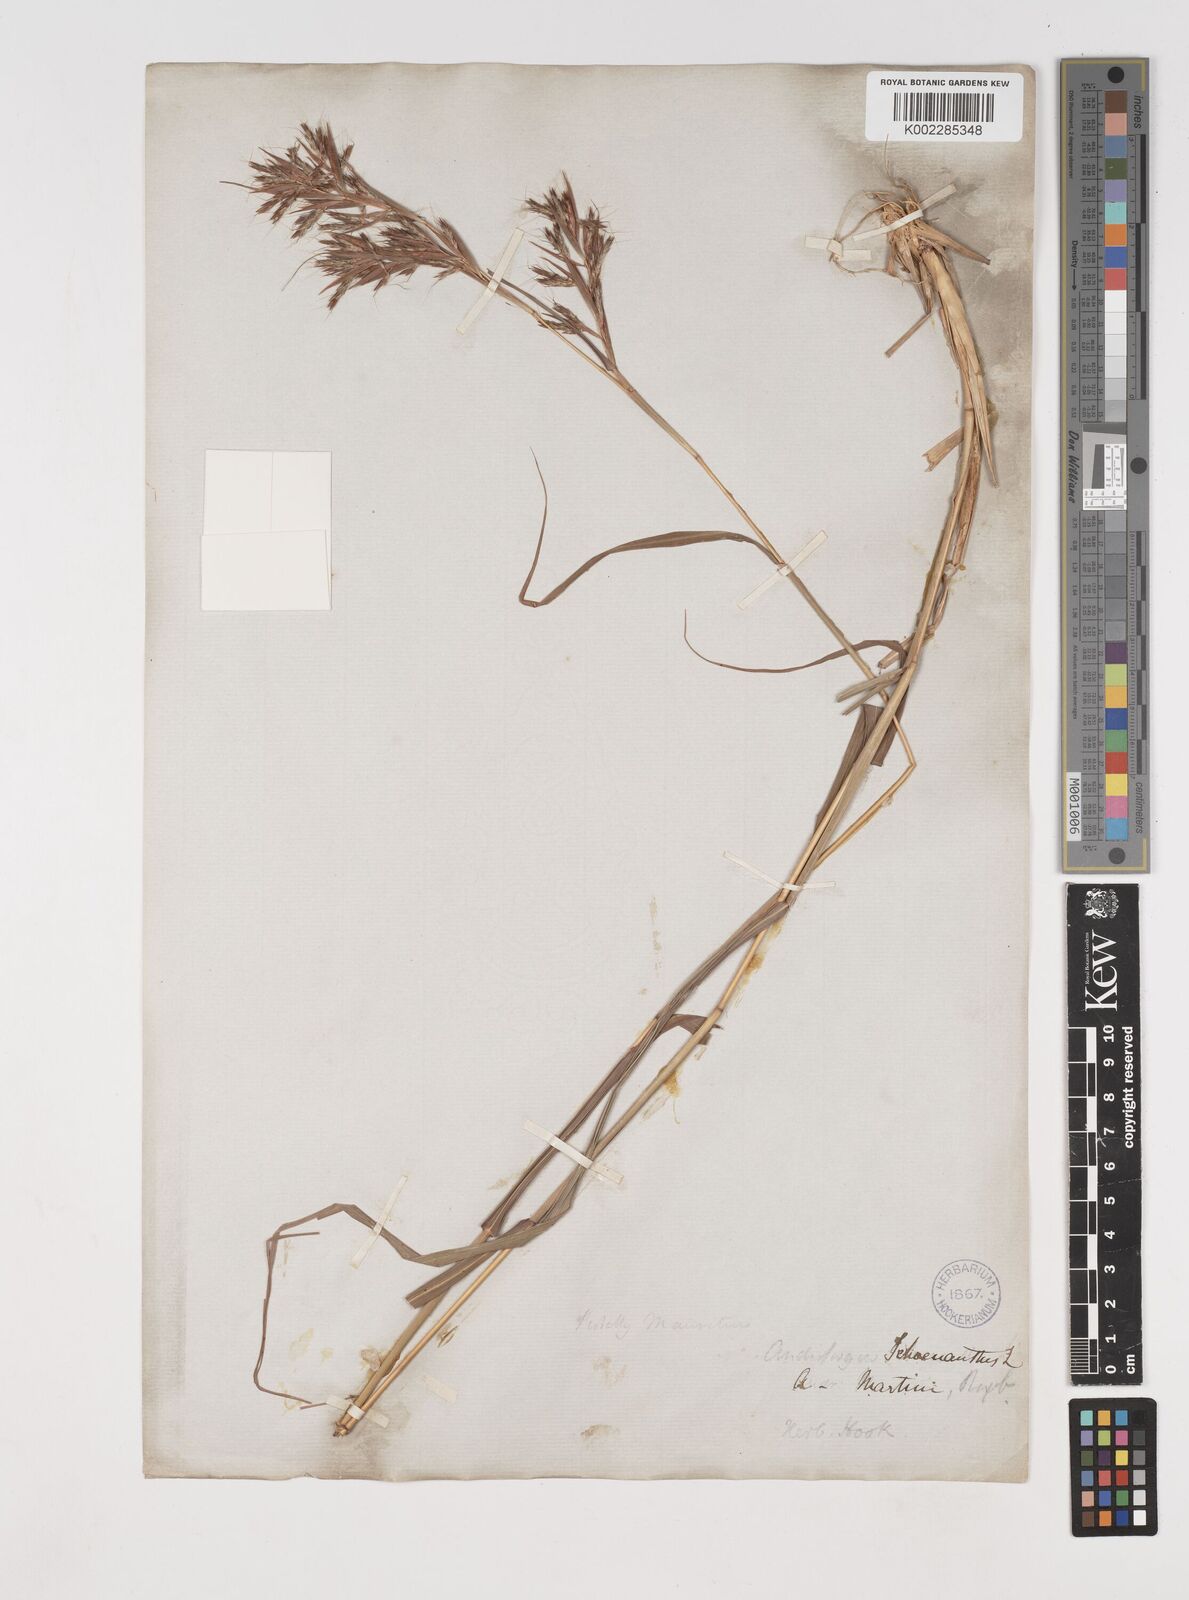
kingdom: Plantae
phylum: Tracheophyta
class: Liliopsida
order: Poales
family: Poaceae
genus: Cymbopogon
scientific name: Cymbopogon caesius
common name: Kachi grass
